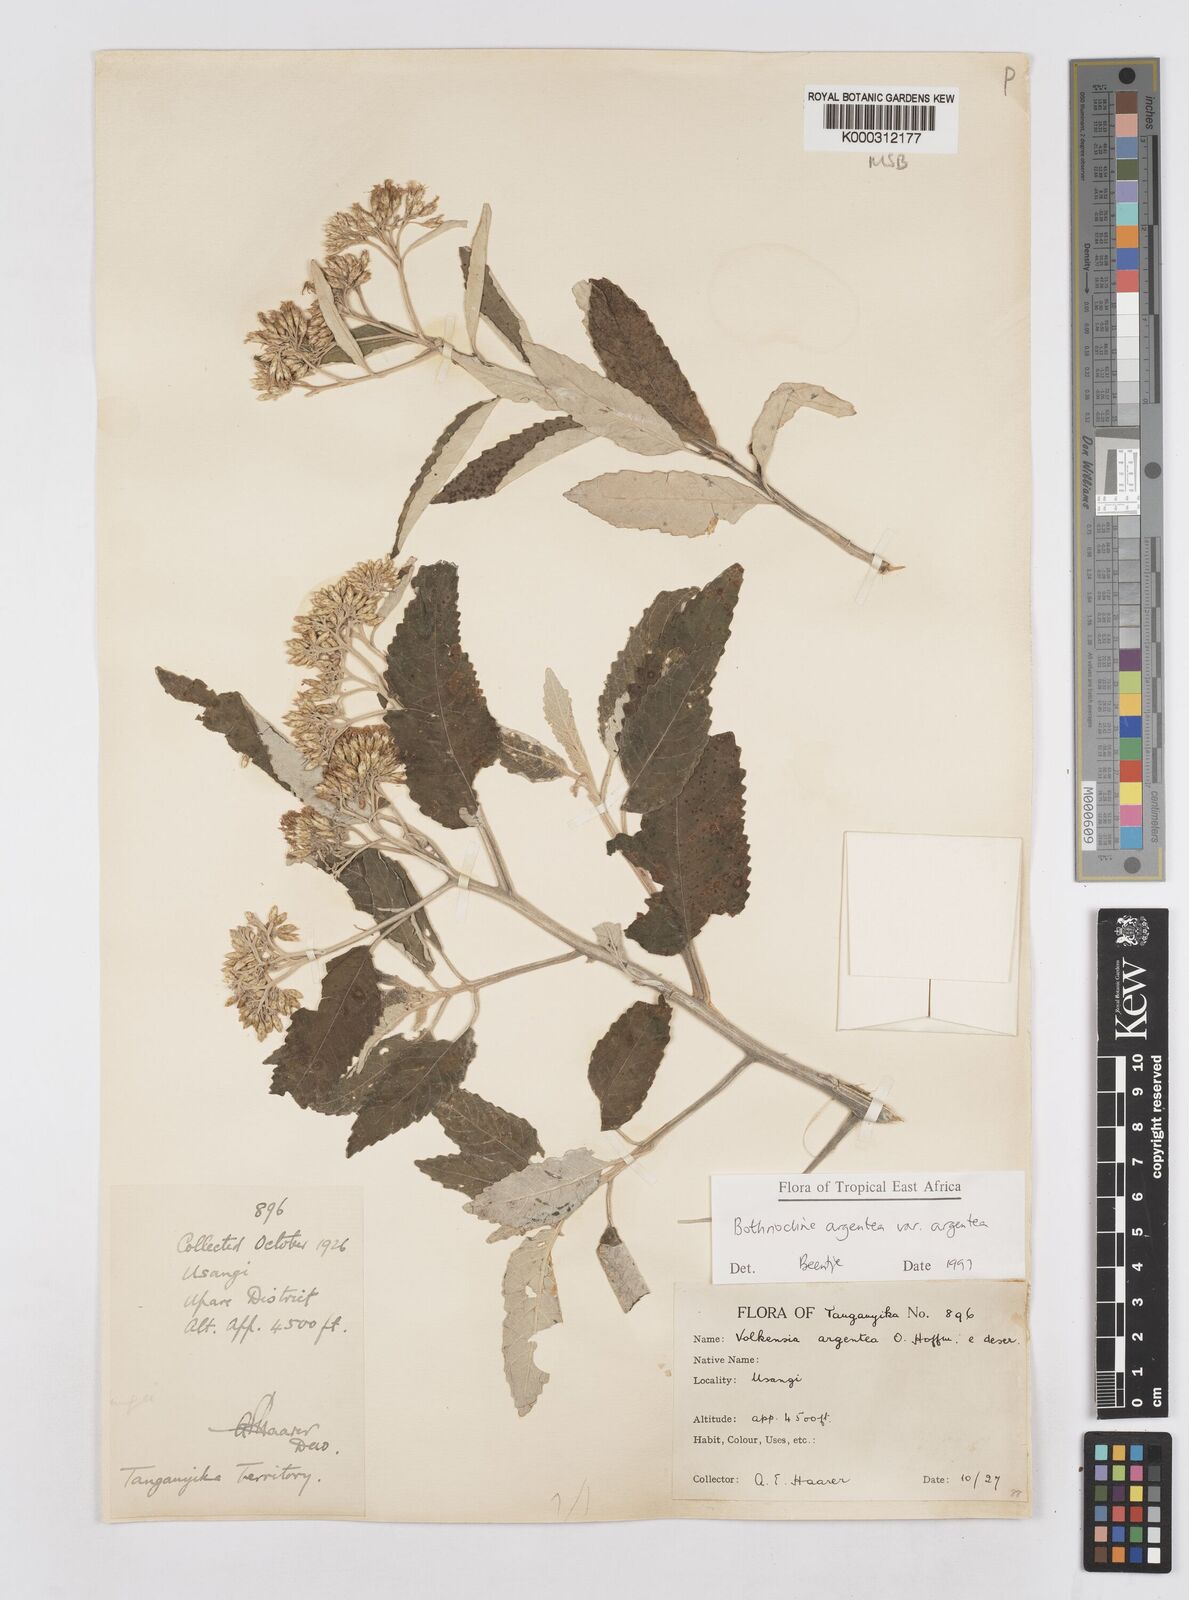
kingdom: Plantae
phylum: Tracheophyta
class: Magnoliopsida
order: Asterales
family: Asteraceae
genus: Bothriocline
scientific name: Bothriocline argentea
